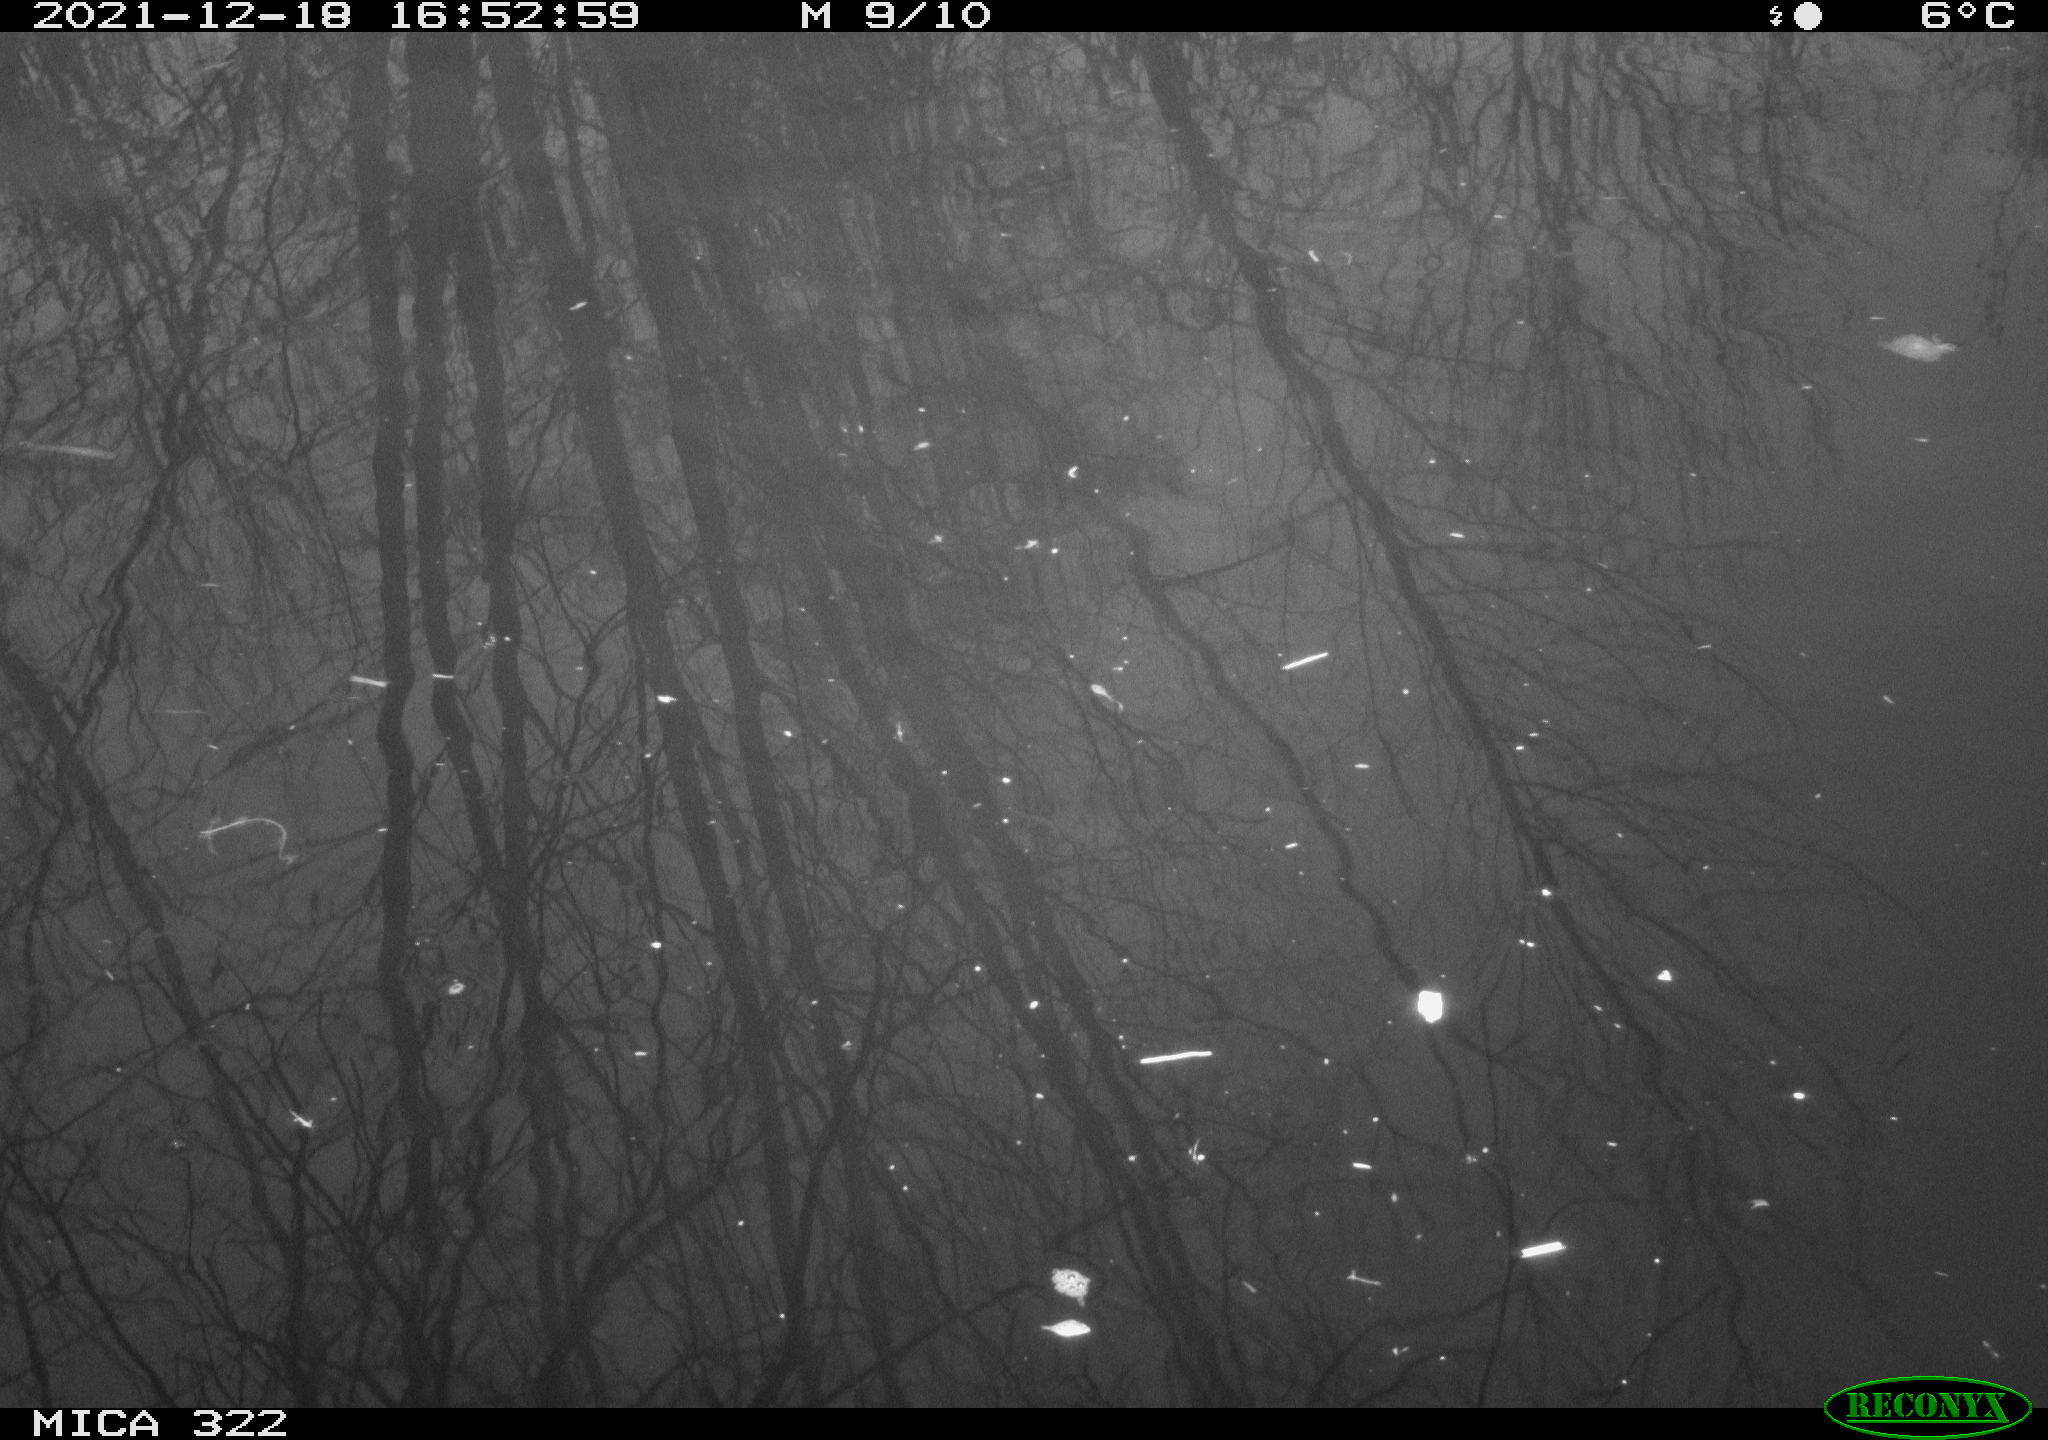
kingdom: Animalia
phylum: Chordata
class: Aves
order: Gruiformes
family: Rallidae
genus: Gallinula
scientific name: Gallinula chloropus
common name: Common moorhen
